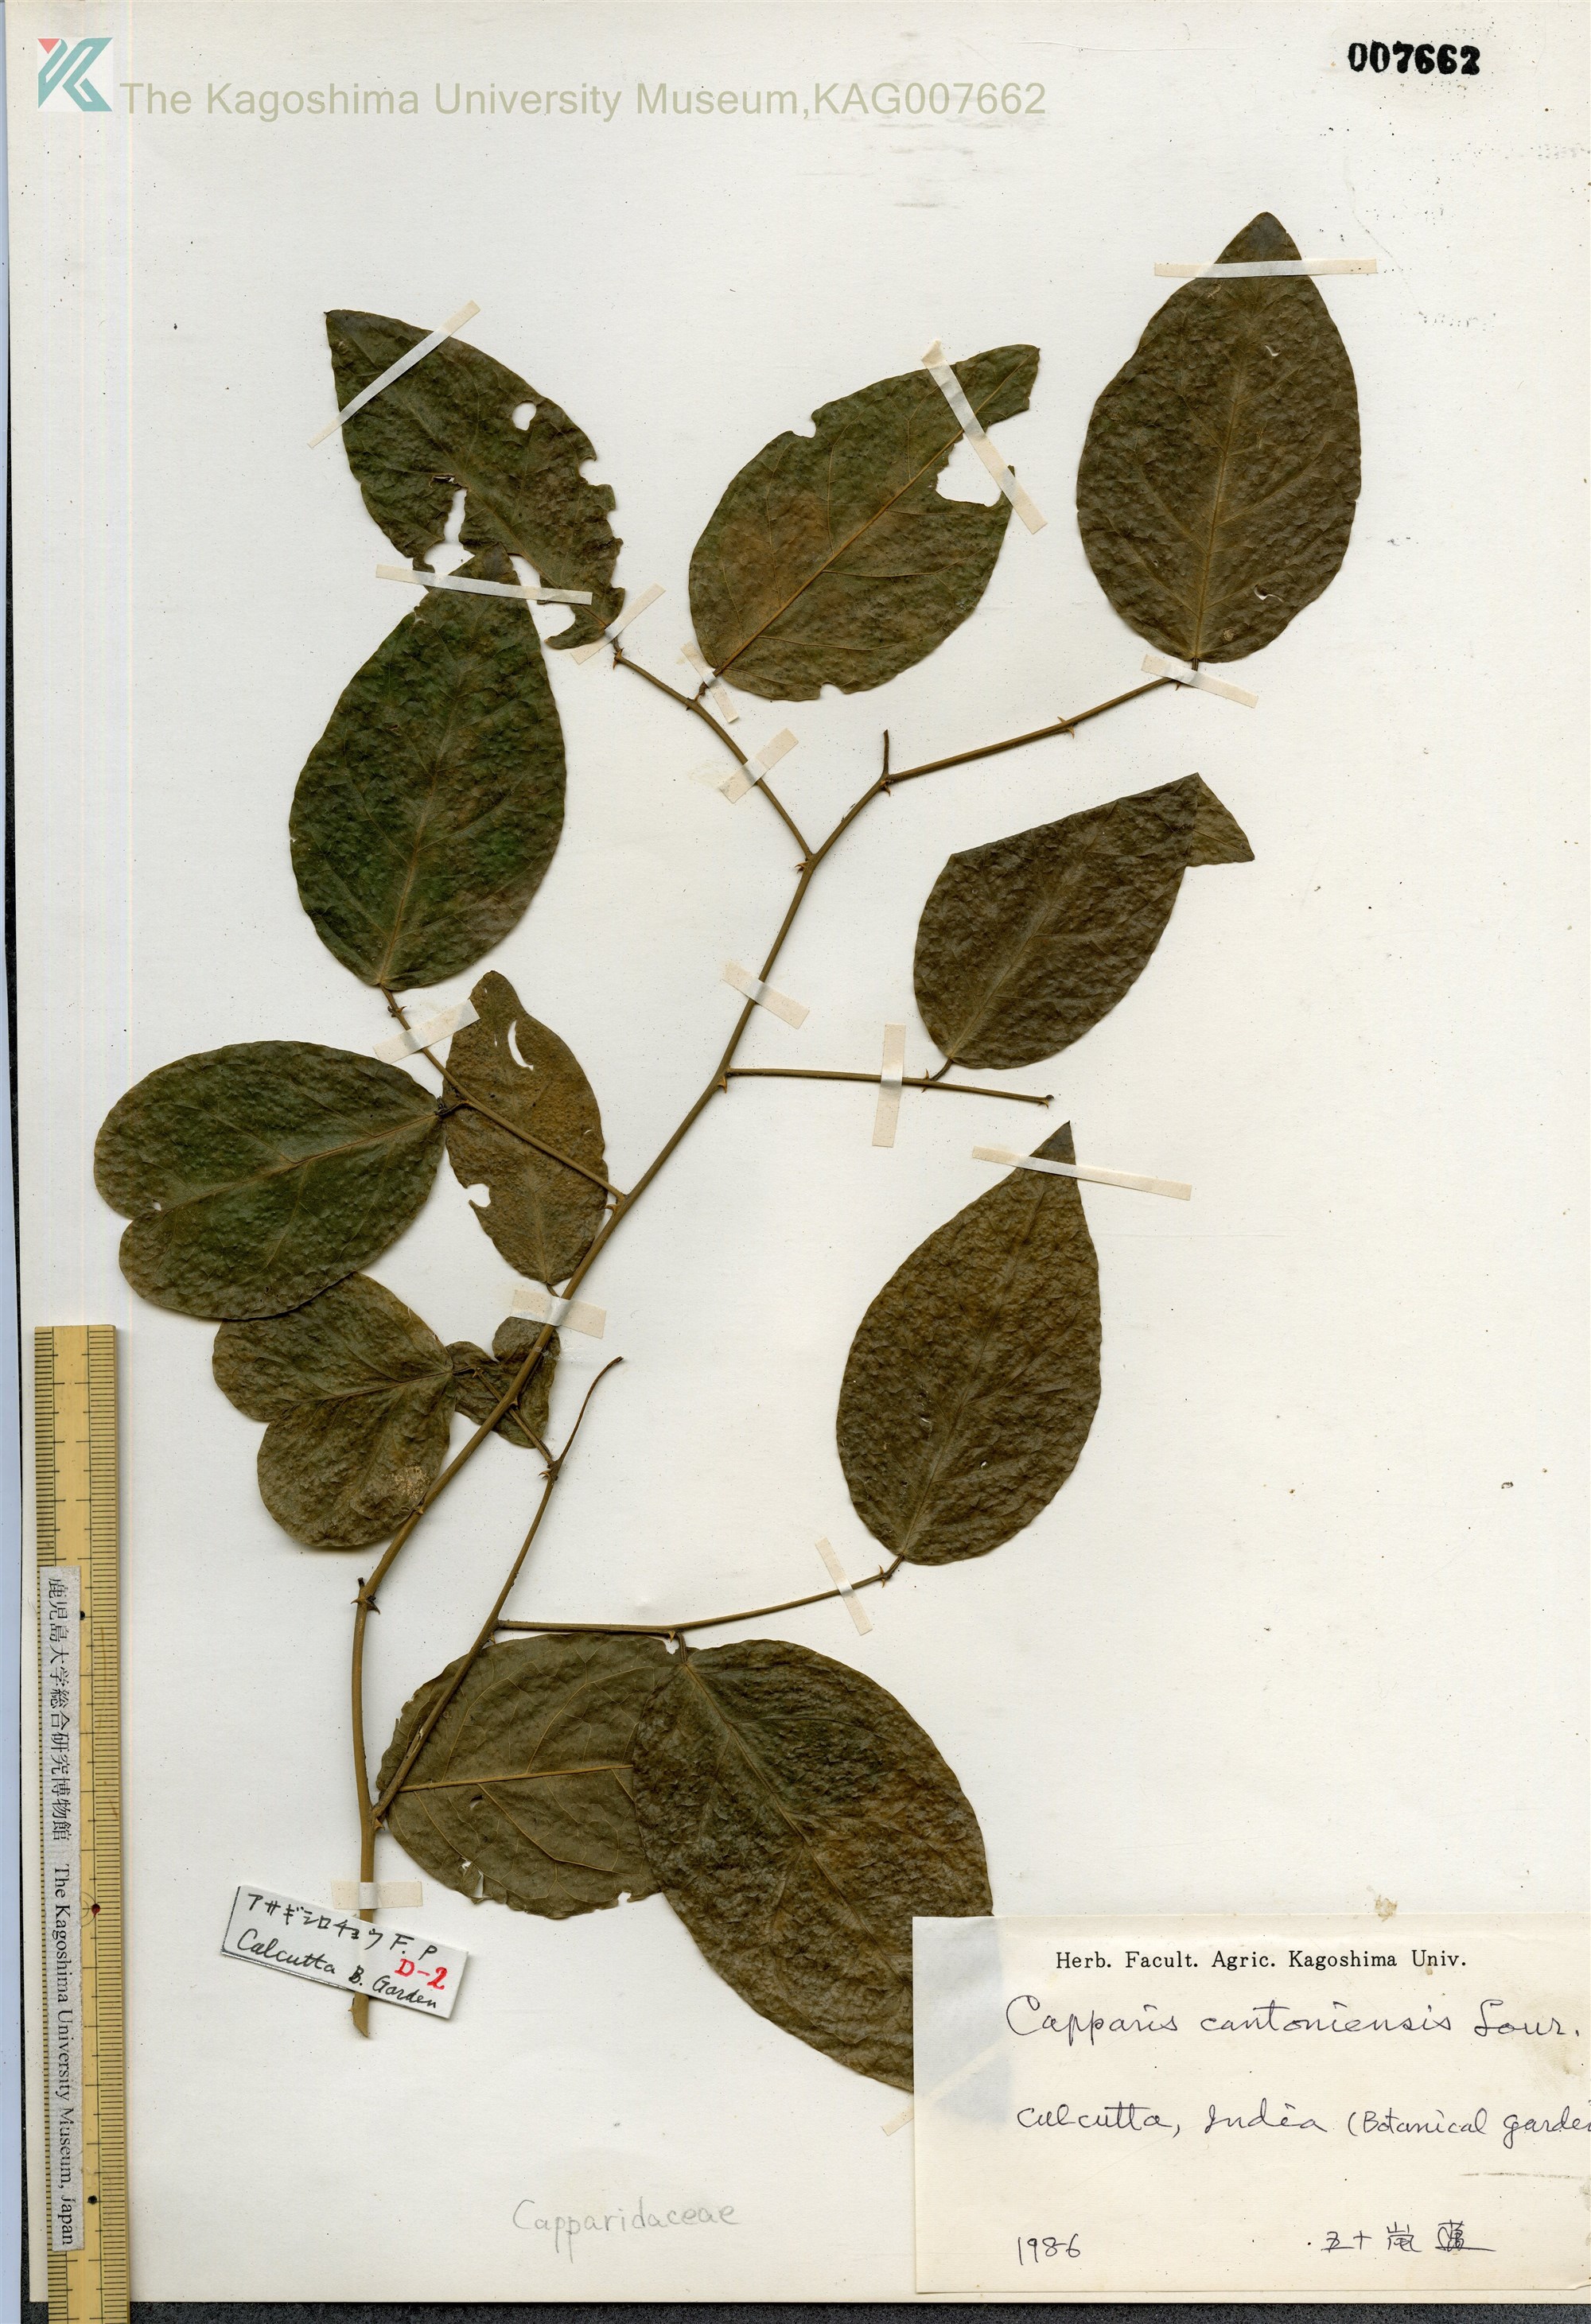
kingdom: Plantae
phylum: Tracheophyta
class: Magnoliopsida
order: Brassicales
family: Capparaceae
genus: Capparis
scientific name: Capparis cantoniensis
